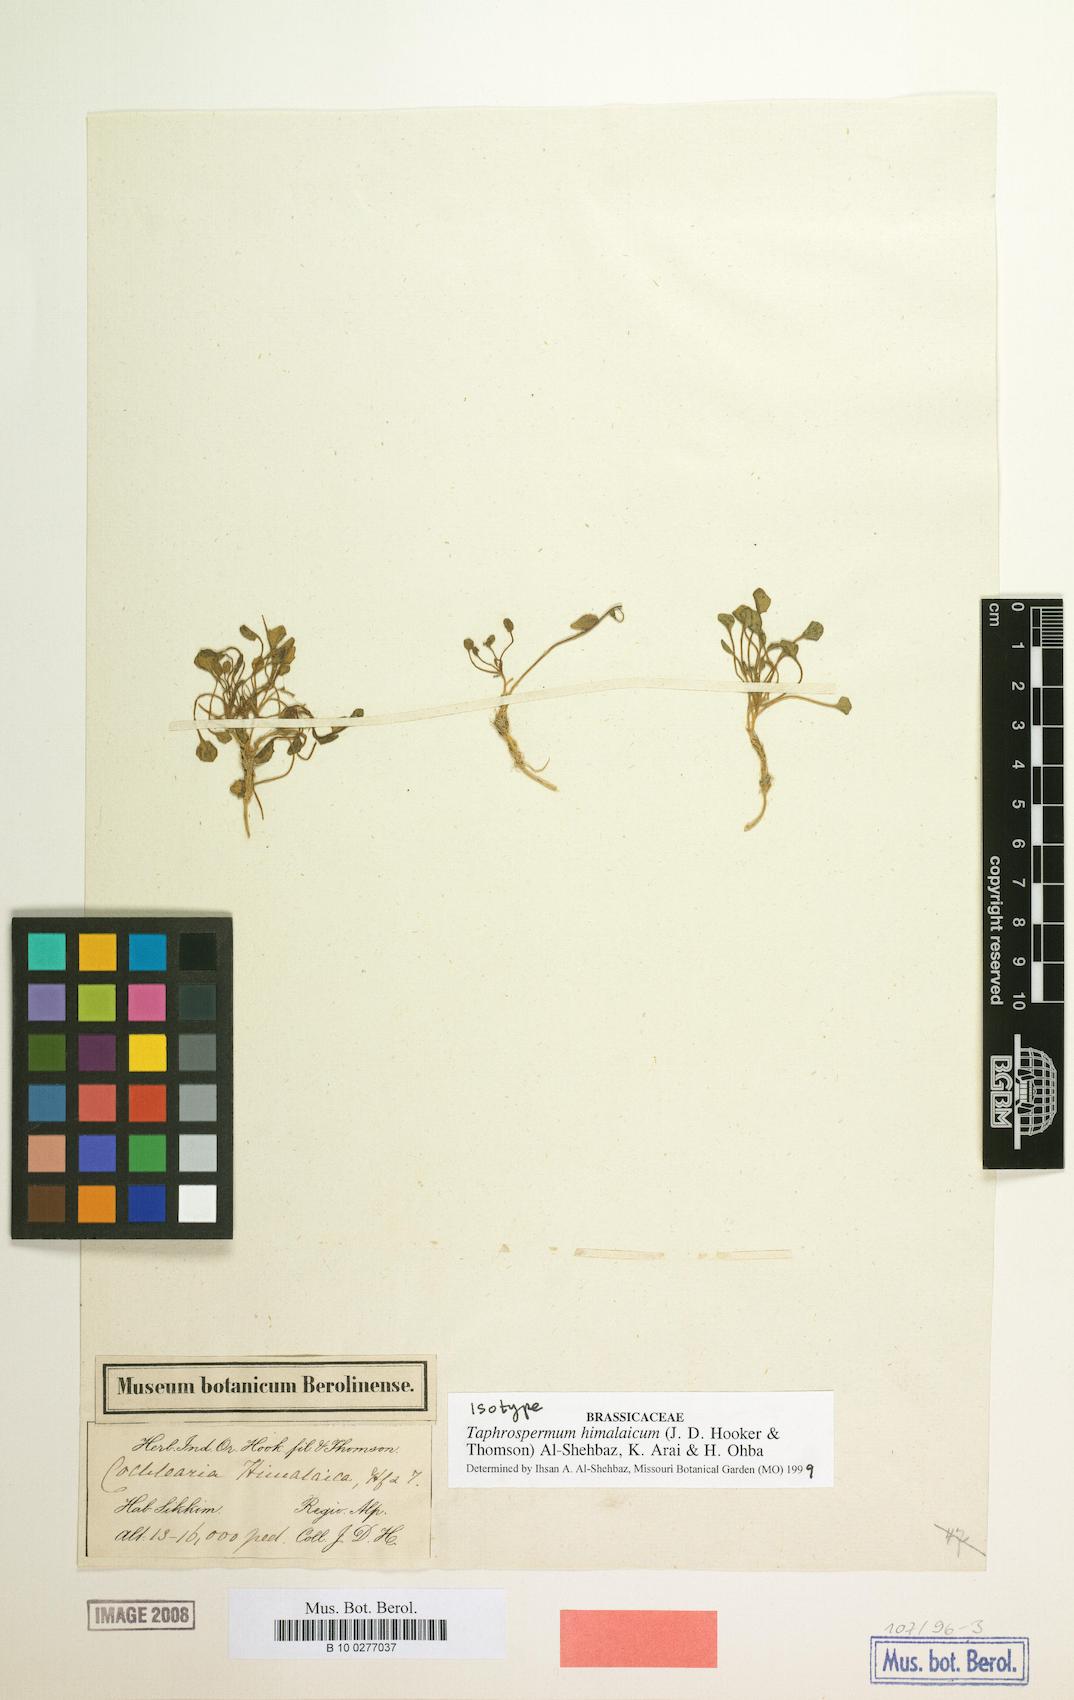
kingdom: Plantae
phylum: Tracheophyta
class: Magnoliopsida
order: Brassicales
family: Brassicaceae
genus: Eutrema
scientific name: Eutrema hookeri
